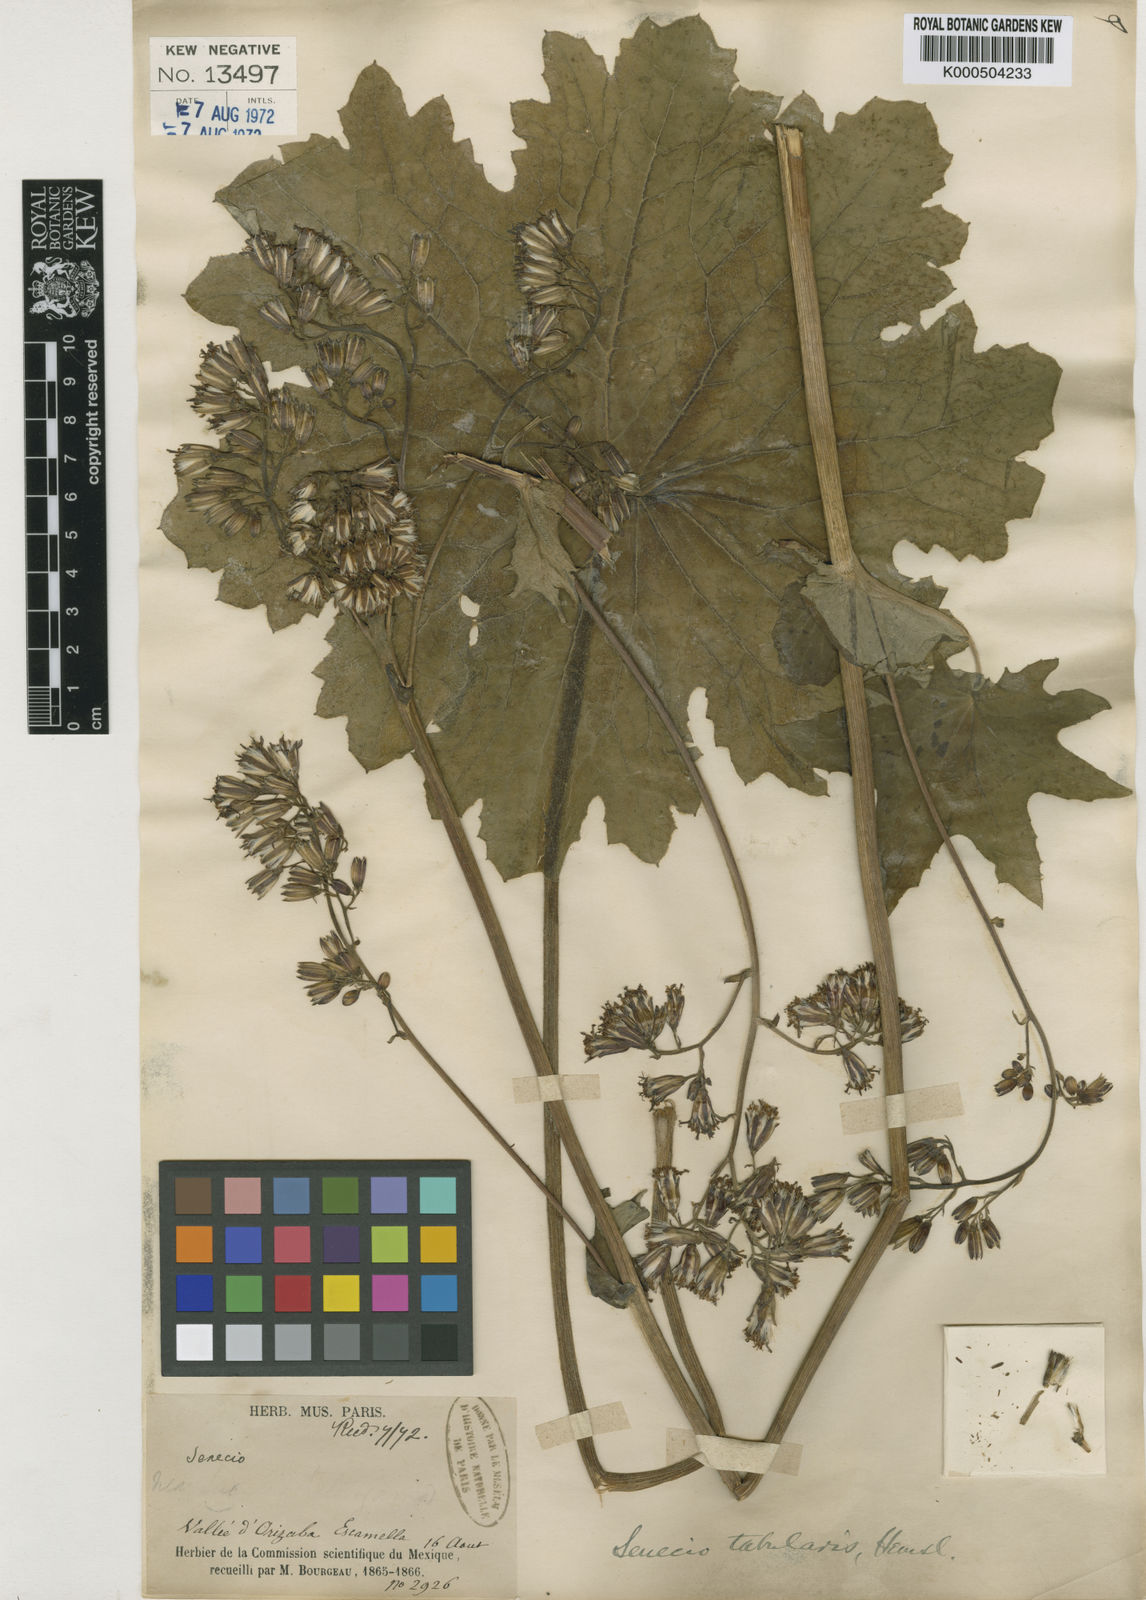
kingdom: Plantae
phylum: Tracheophyta
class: Magnoliopsida
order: Asterales
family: Asteraceae
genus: Psacalium
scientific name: Psacalium tabulare
